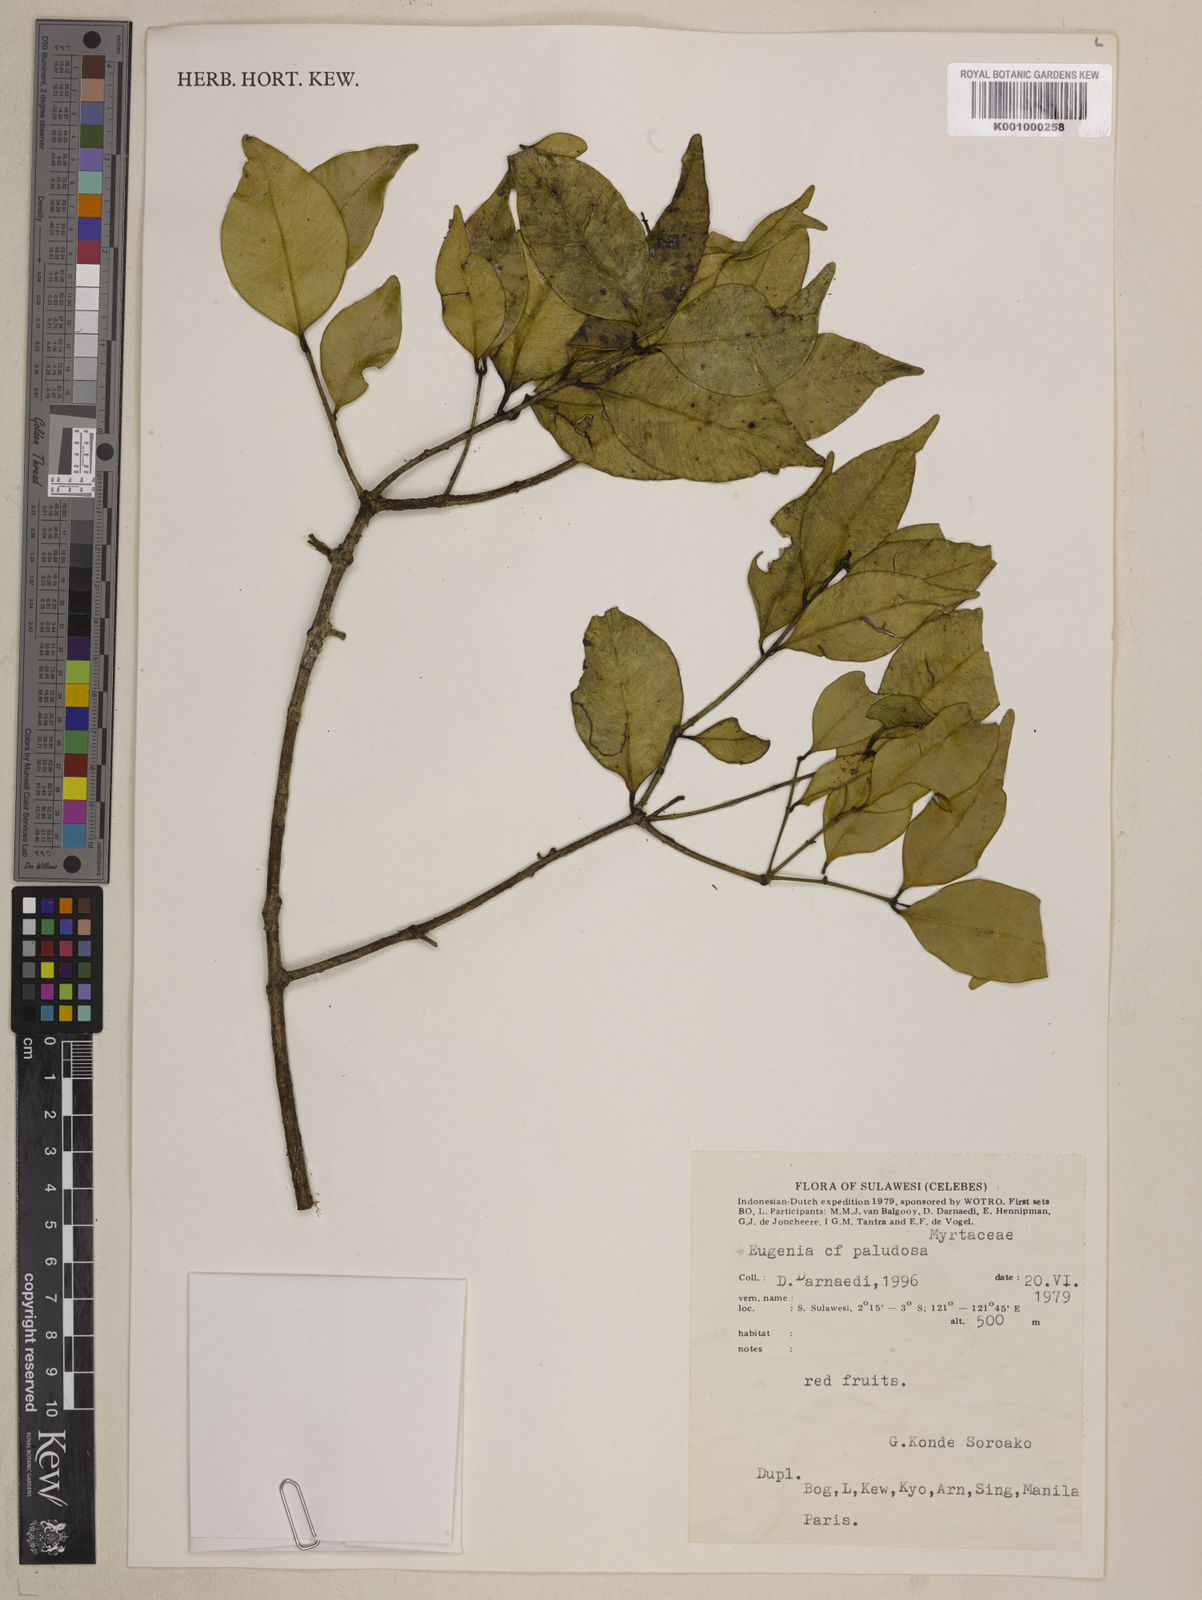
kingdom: Plantae
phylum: Tracheophyta
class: Magnoliopsida
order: Myrtales
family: Myrtaceae
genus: Eugenia
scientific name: Eugenia reinwardtiana
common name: Cedar bay-cherry
